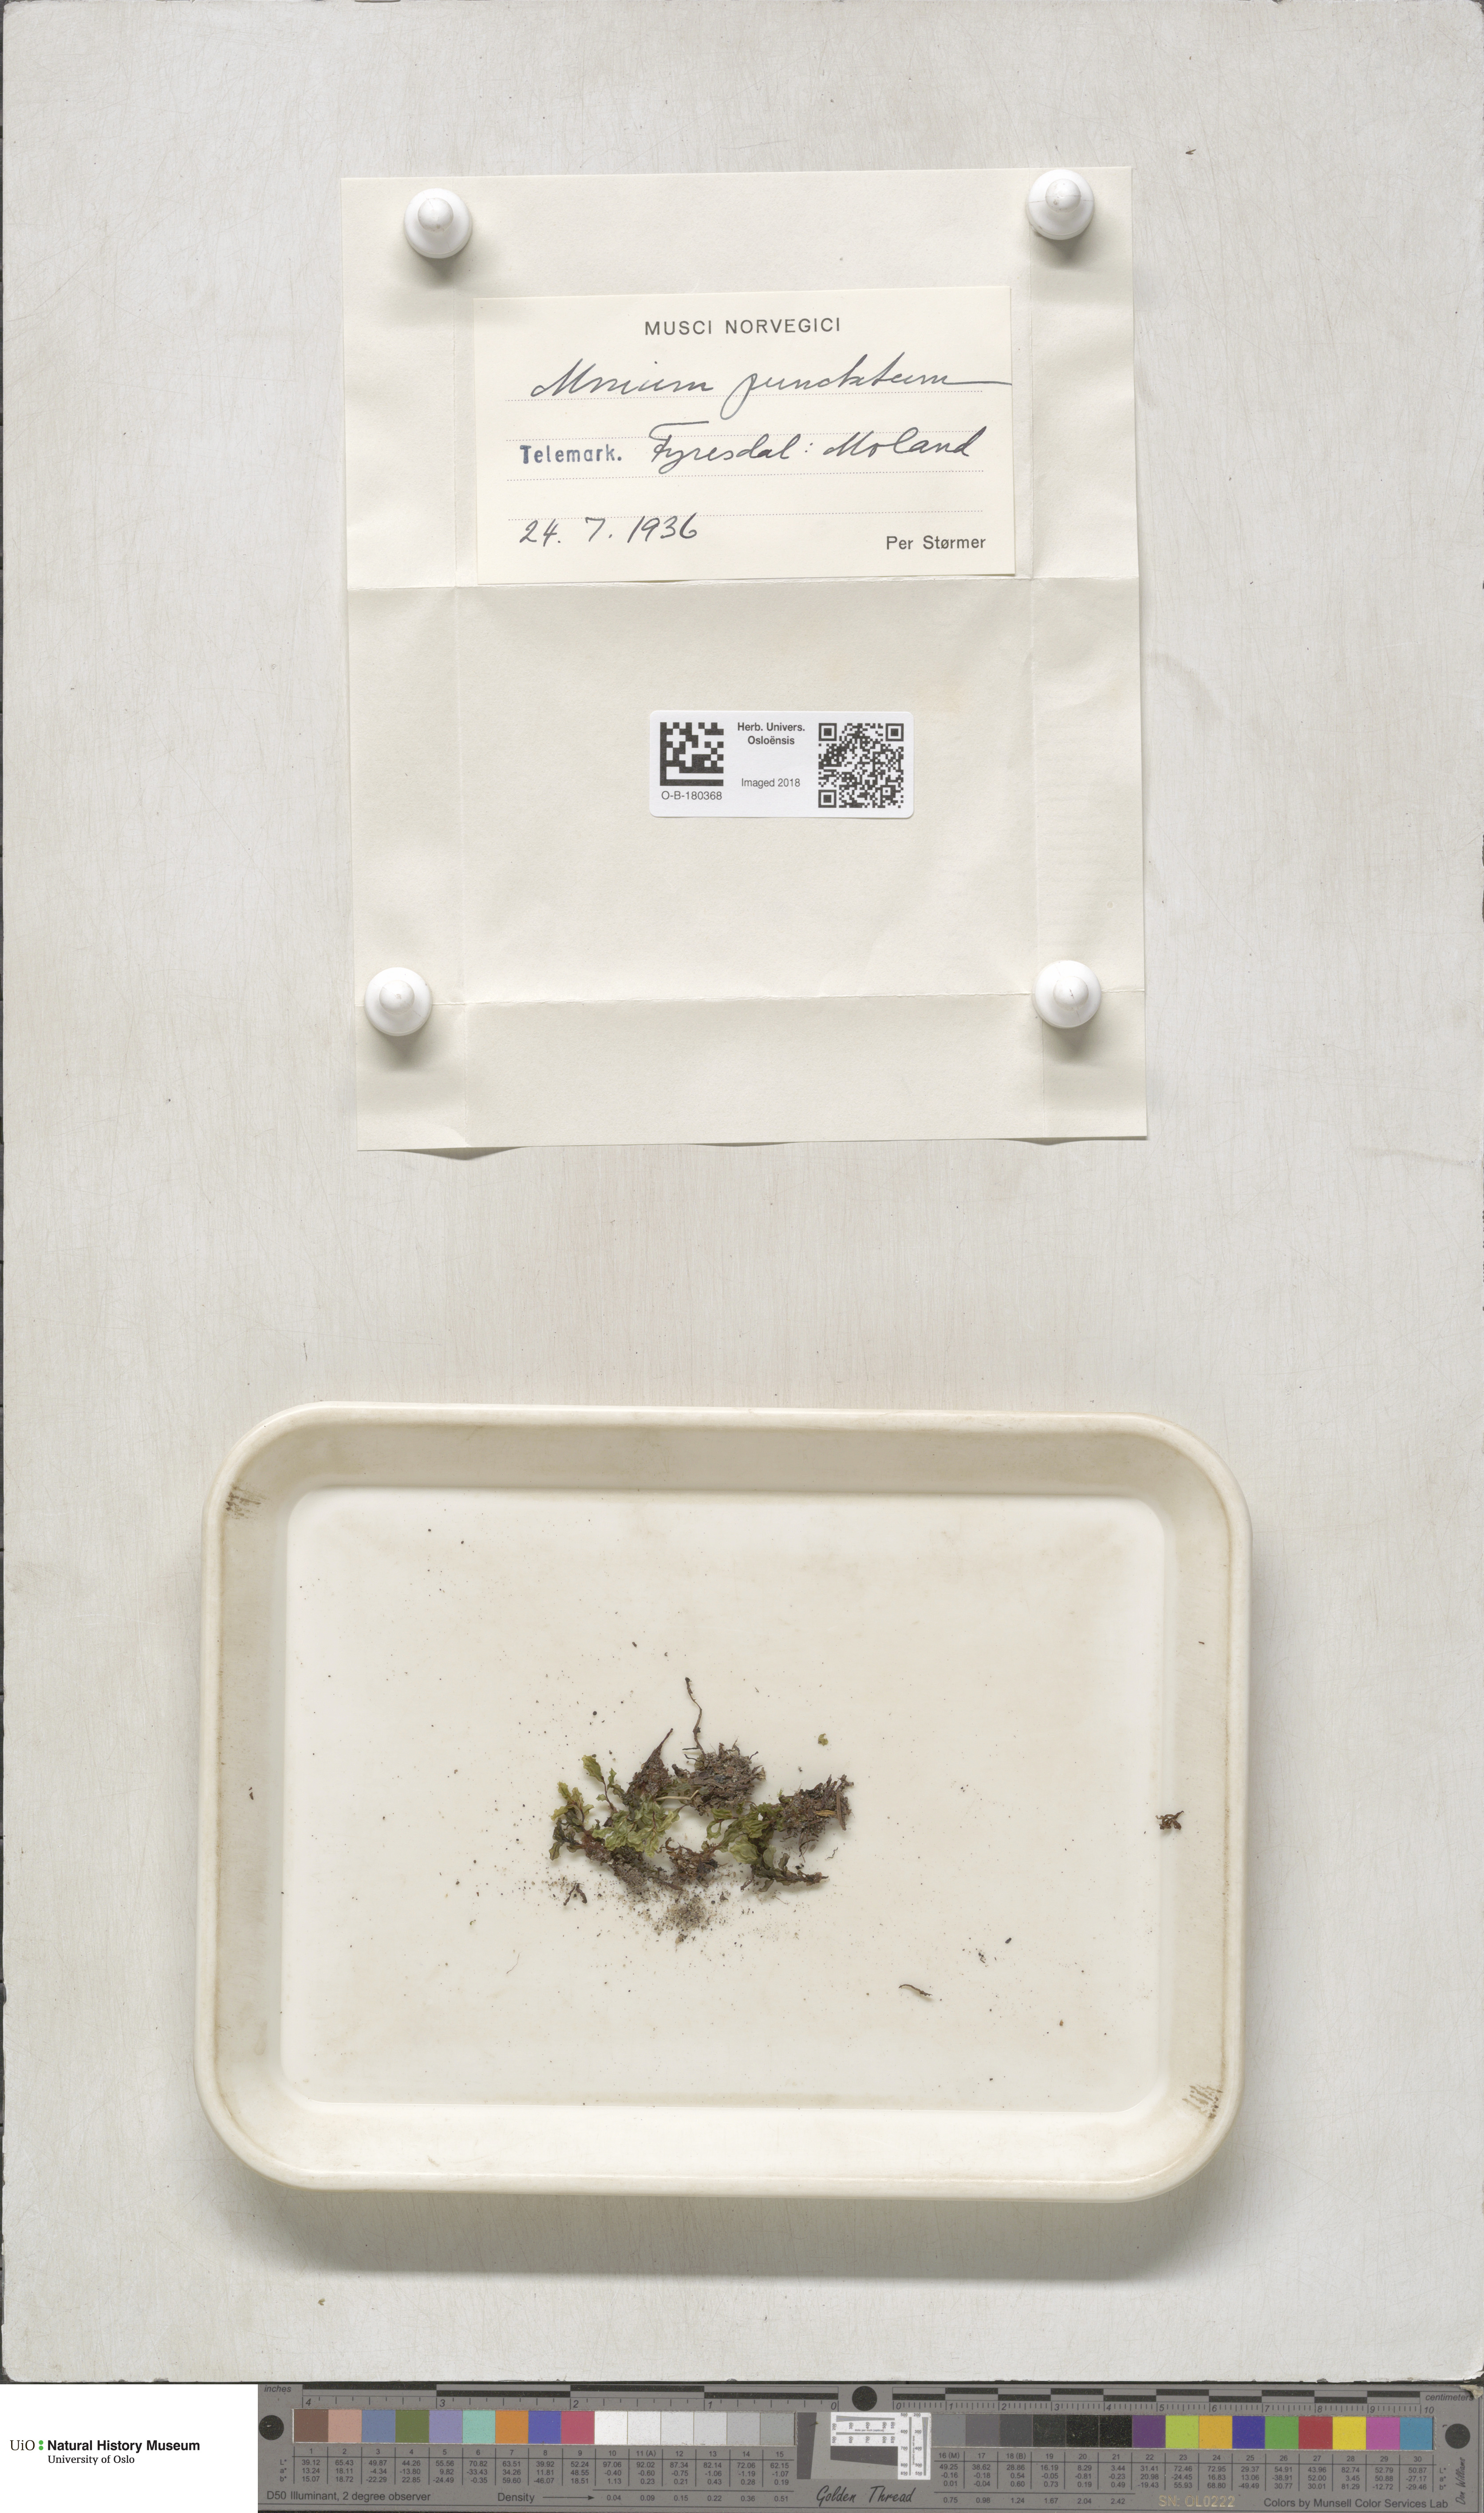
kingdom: Plantae
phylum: Bryophyta
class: Bryopsida
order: Bryales
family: Mniaceae
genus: Rhizomnium
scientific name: Rhizomnium punctatum
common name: Dotted leafy moss
